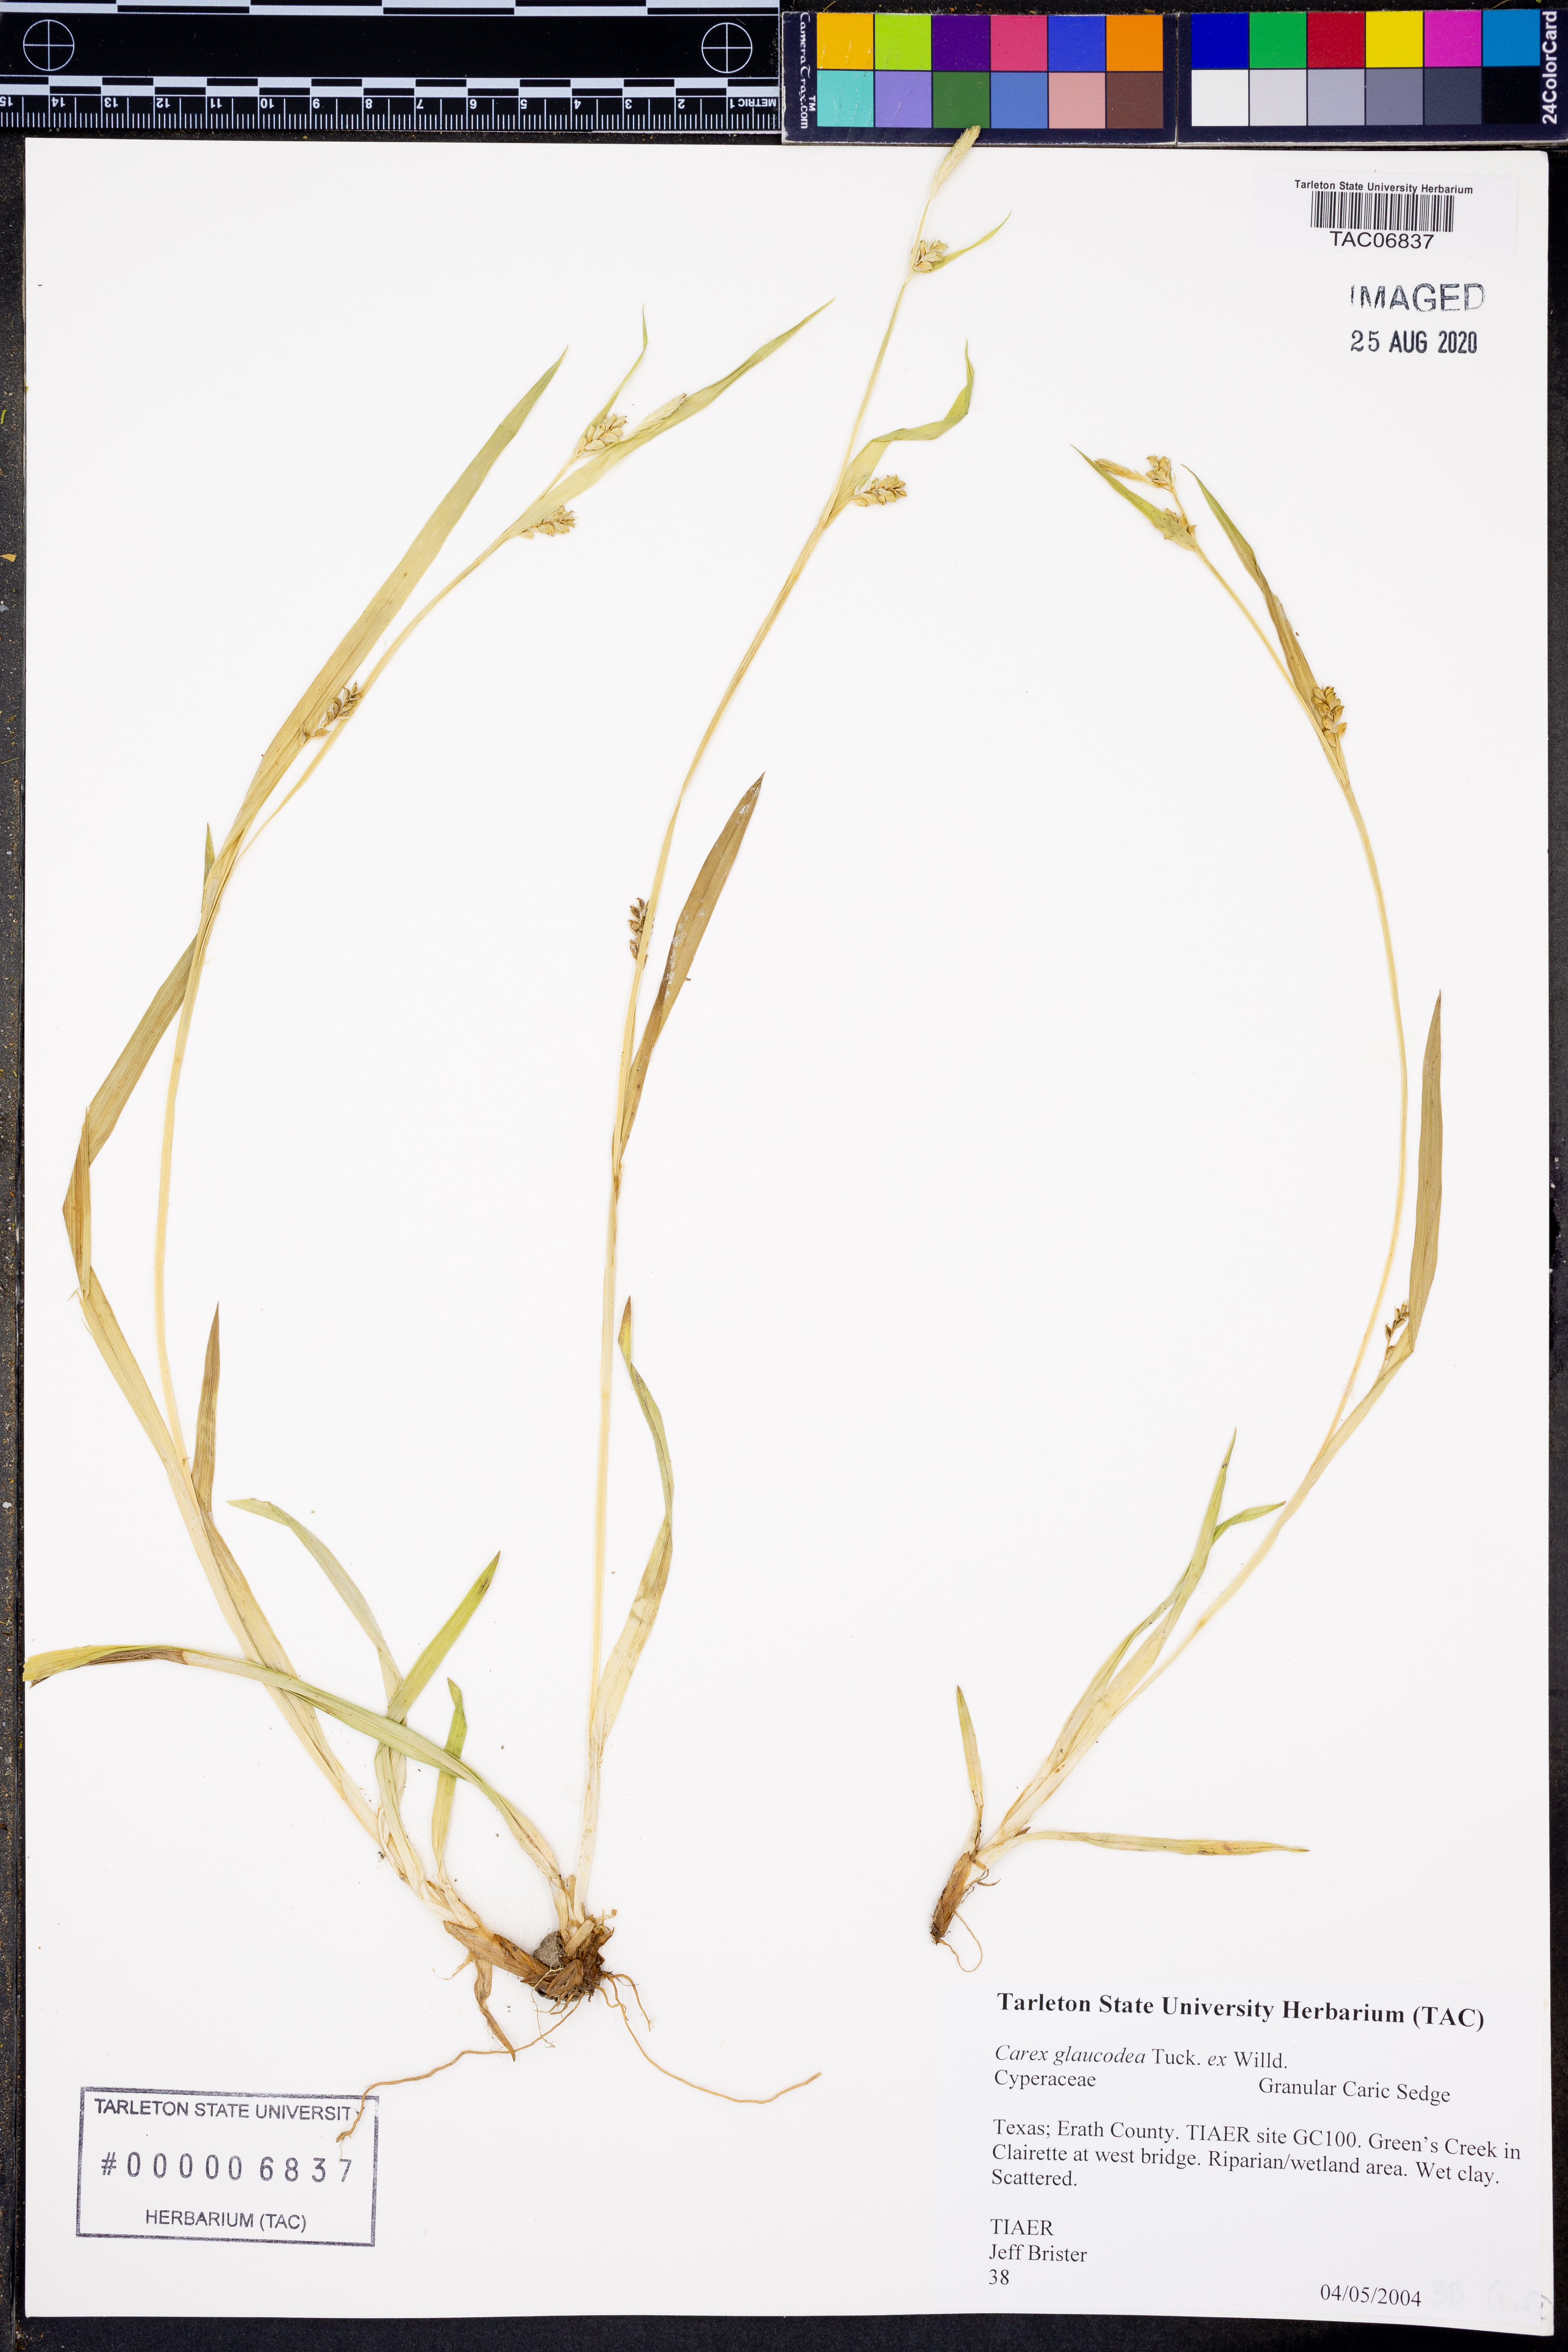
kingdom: Plantae
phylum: Tracheophyta
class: Liliopsida
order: Poales
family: Cyperaceae
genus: Carex
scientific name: Carex glaucodea
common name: Blue sedge
